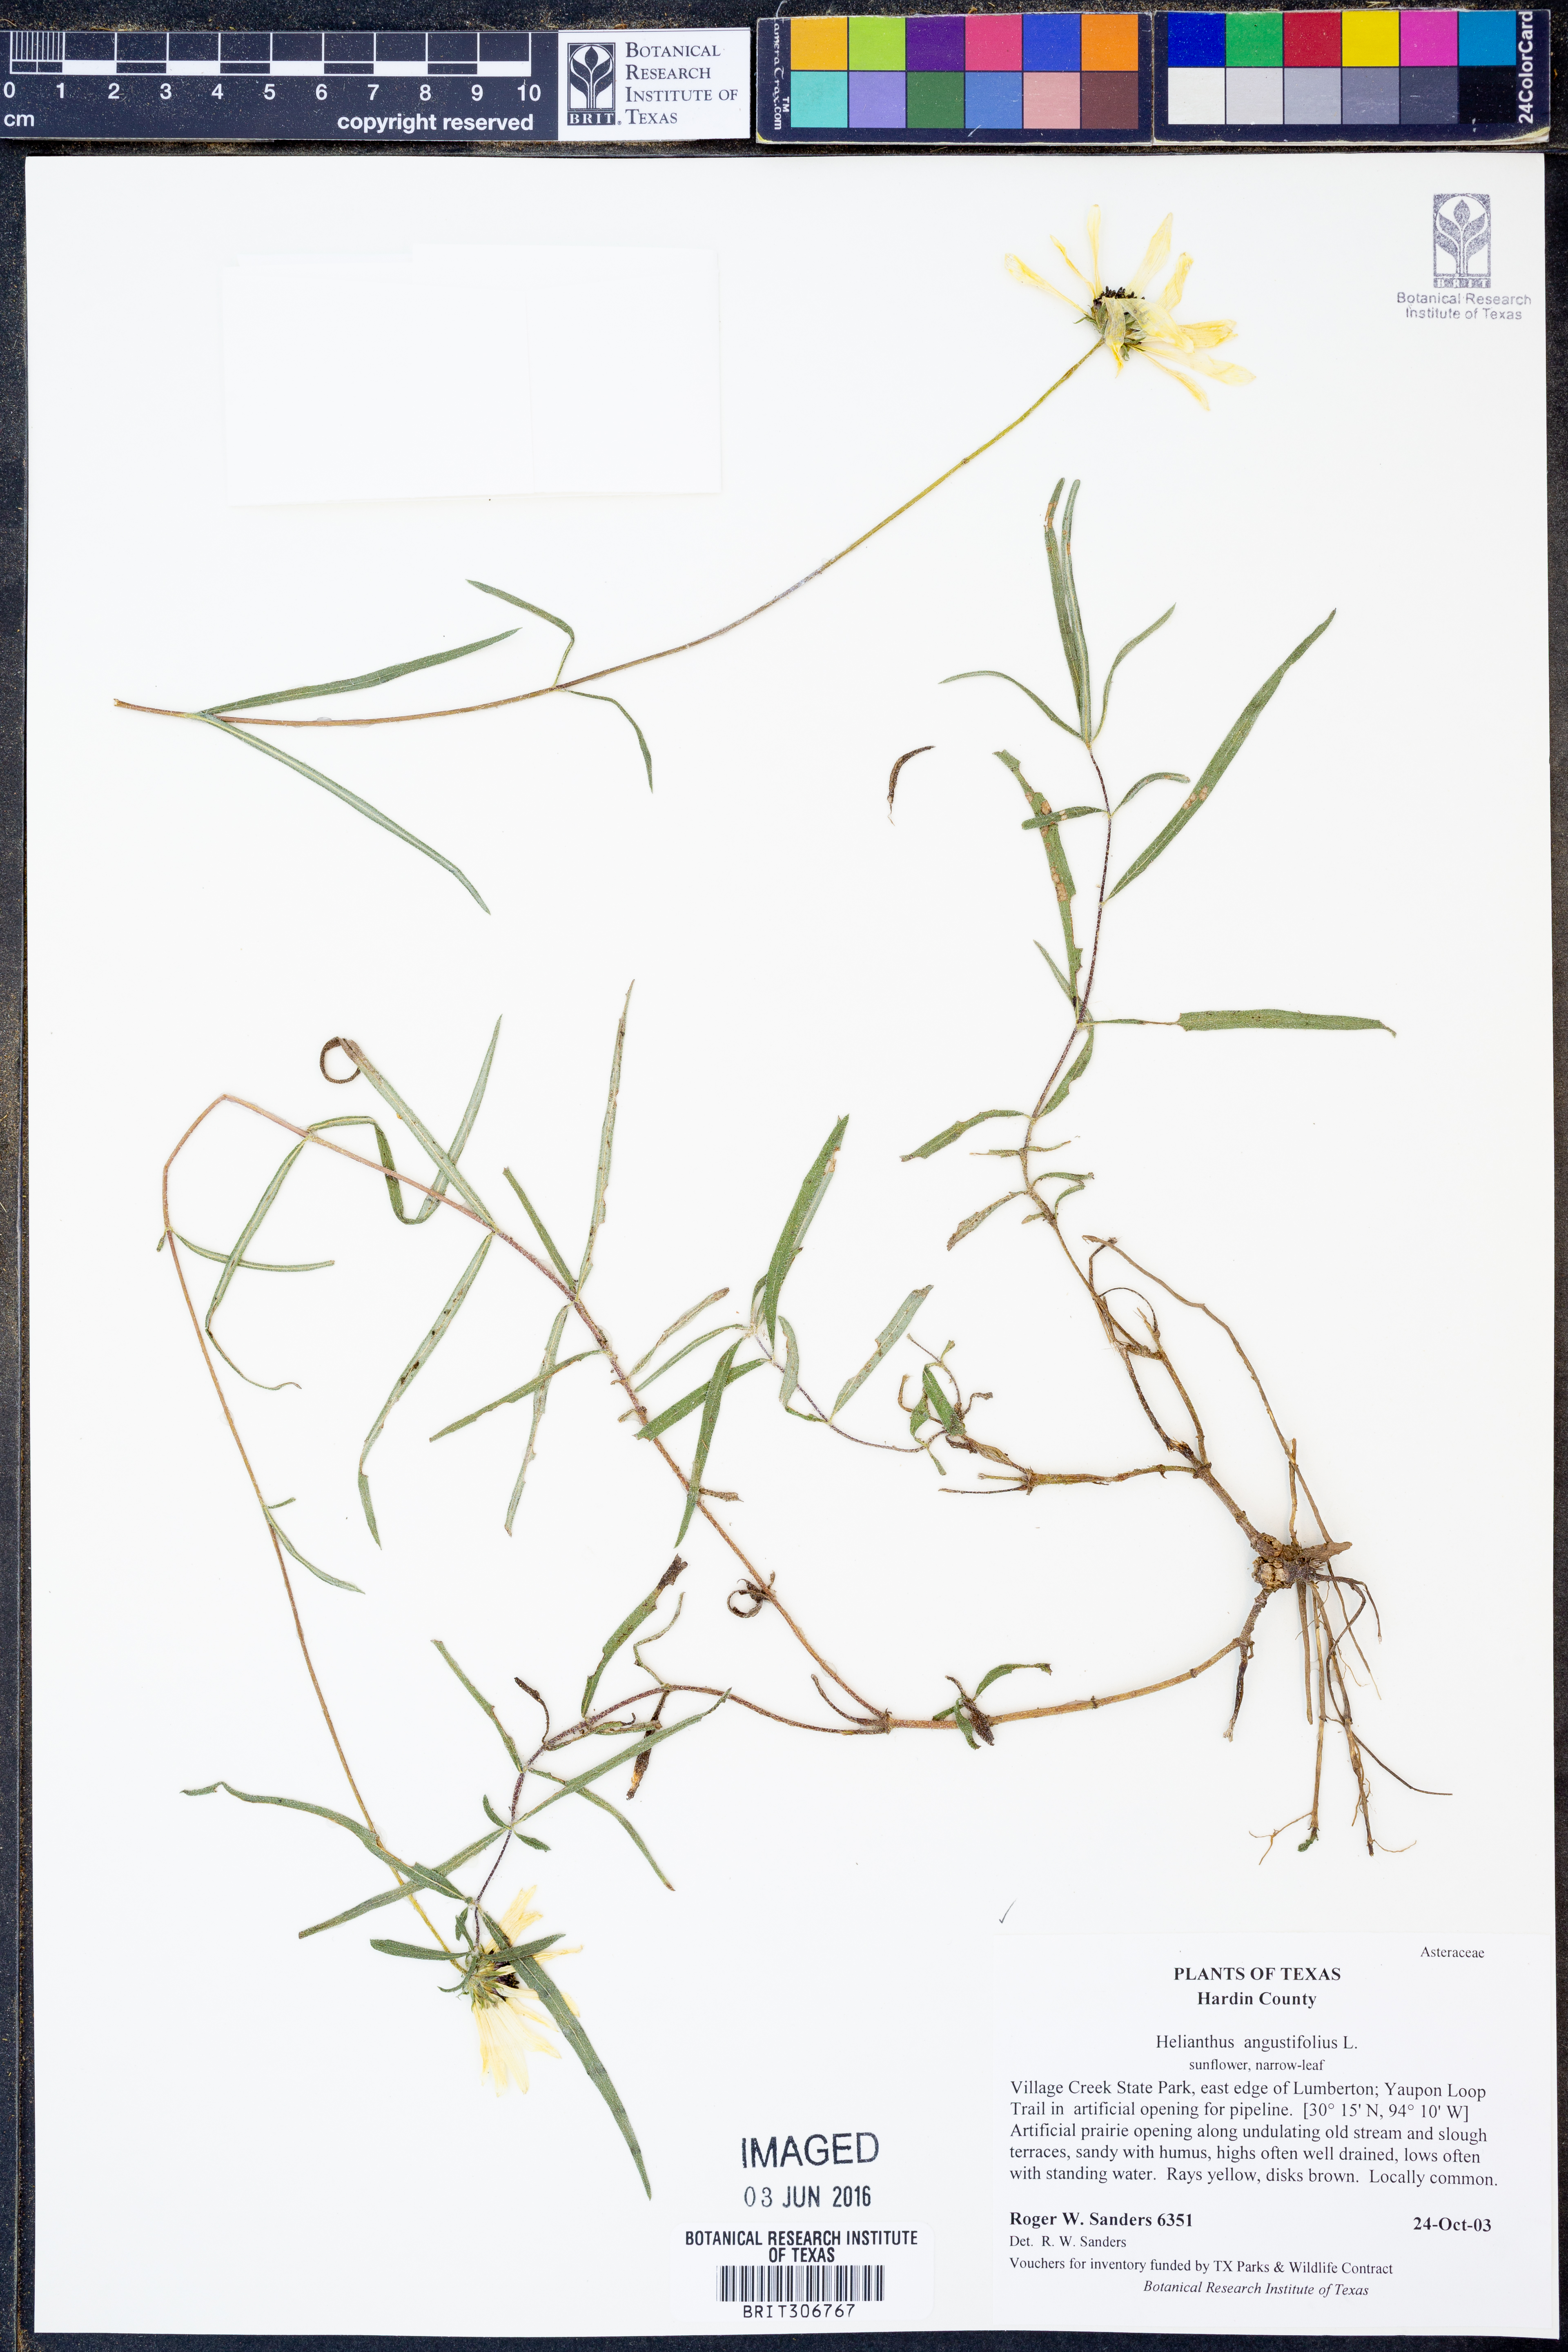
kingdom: Plantae
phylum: Tracheophyta
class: Magnoliopsida
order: Asterales
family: Asteraceae
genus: Helianthus
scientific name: Helianthus angustifolius
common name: Swamp sunflower
